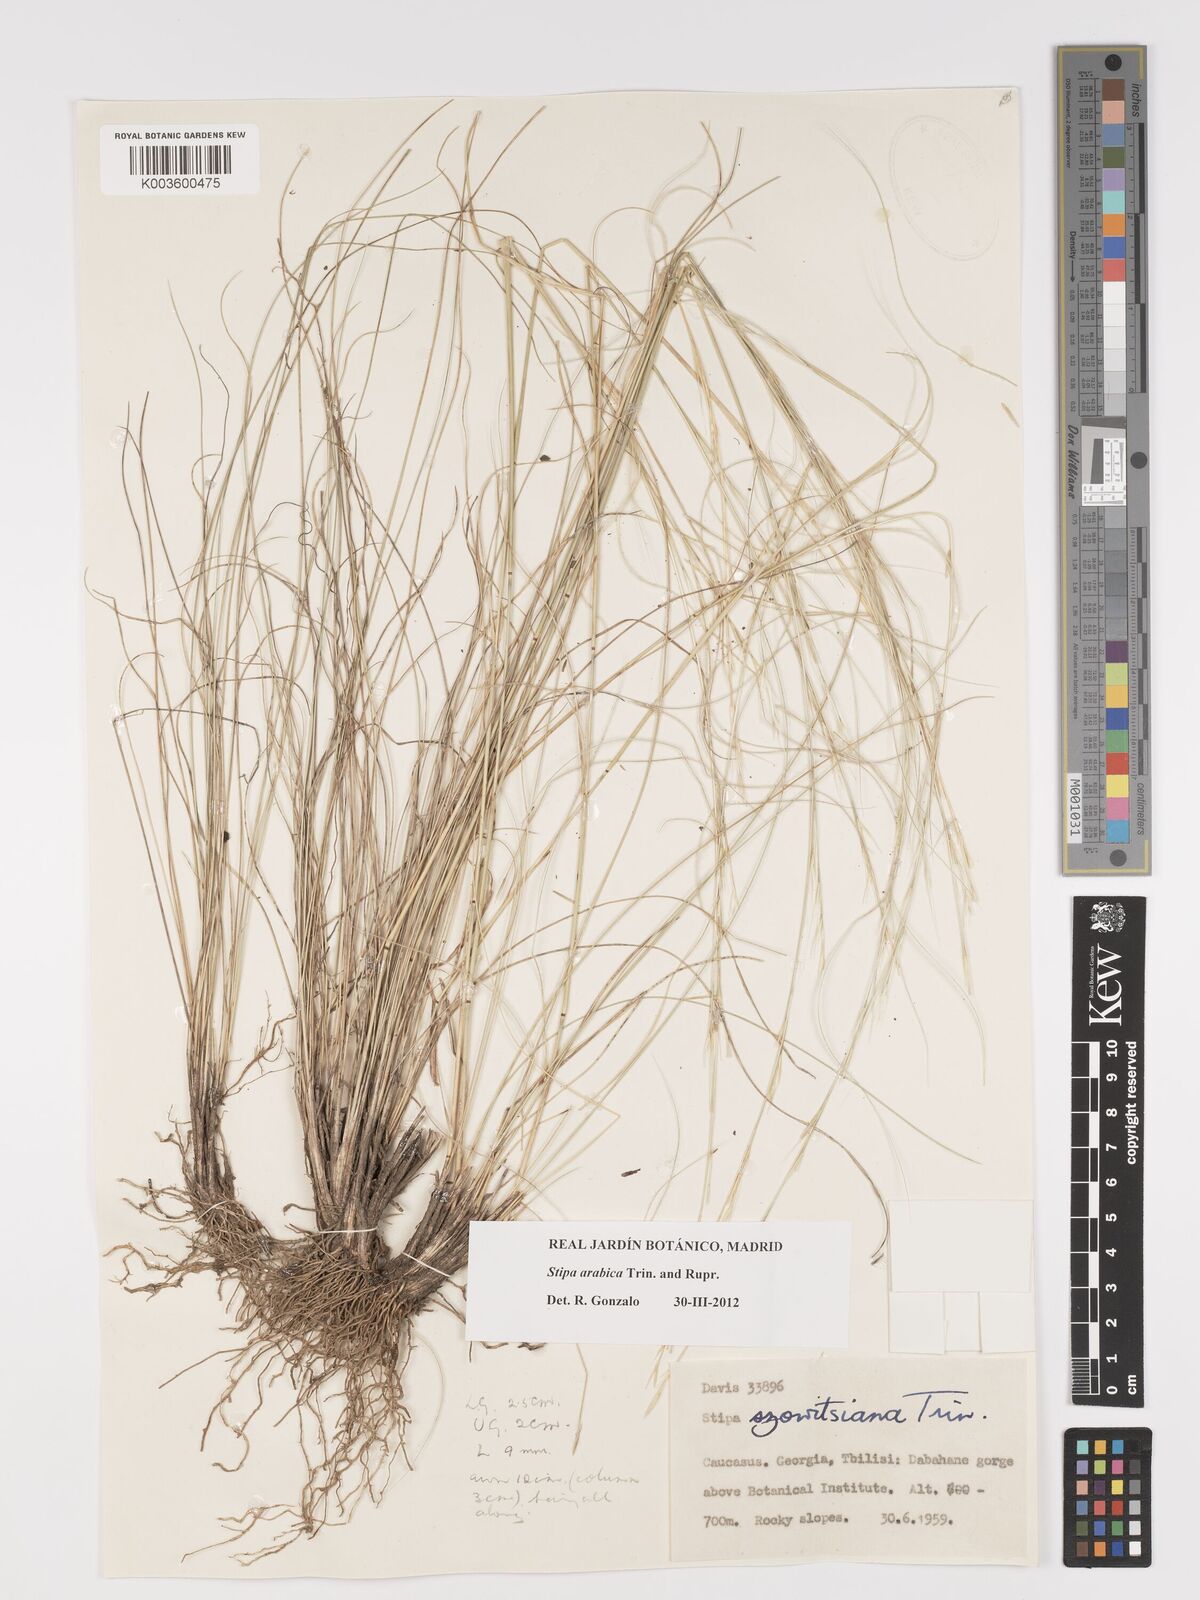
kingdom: Plantae
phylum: Tracheophyta
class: Liliopsida
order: Poales
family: Poaceae
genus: Stipa
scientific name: Stipa arabica
